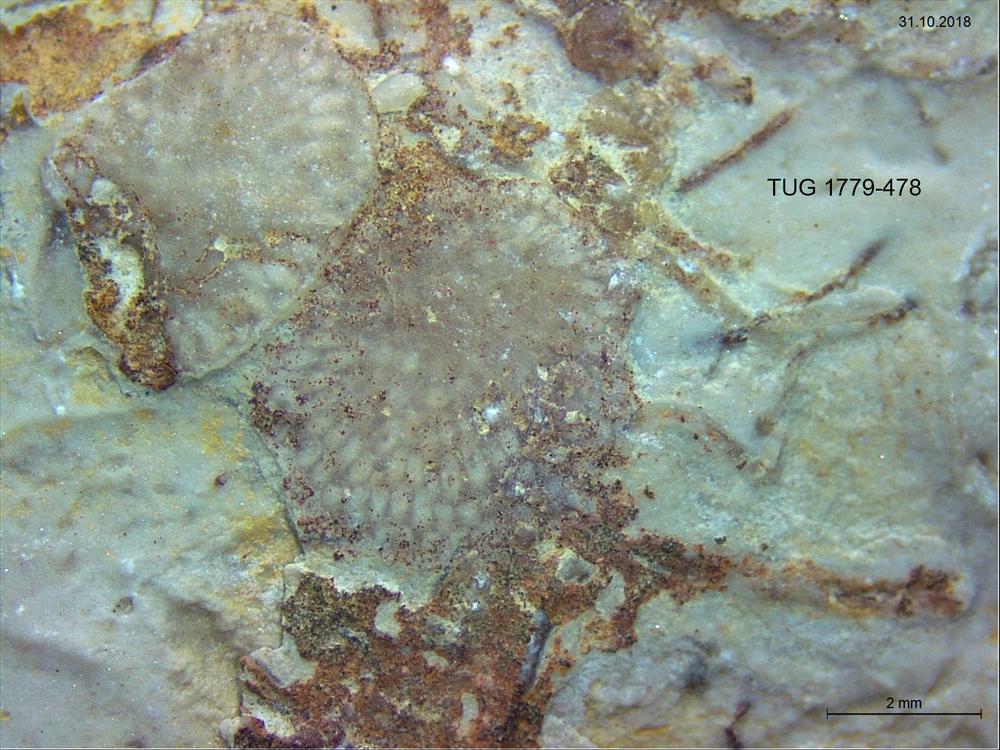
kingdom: Animalia
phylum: Brachiopoda
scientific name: Brachiopoda
